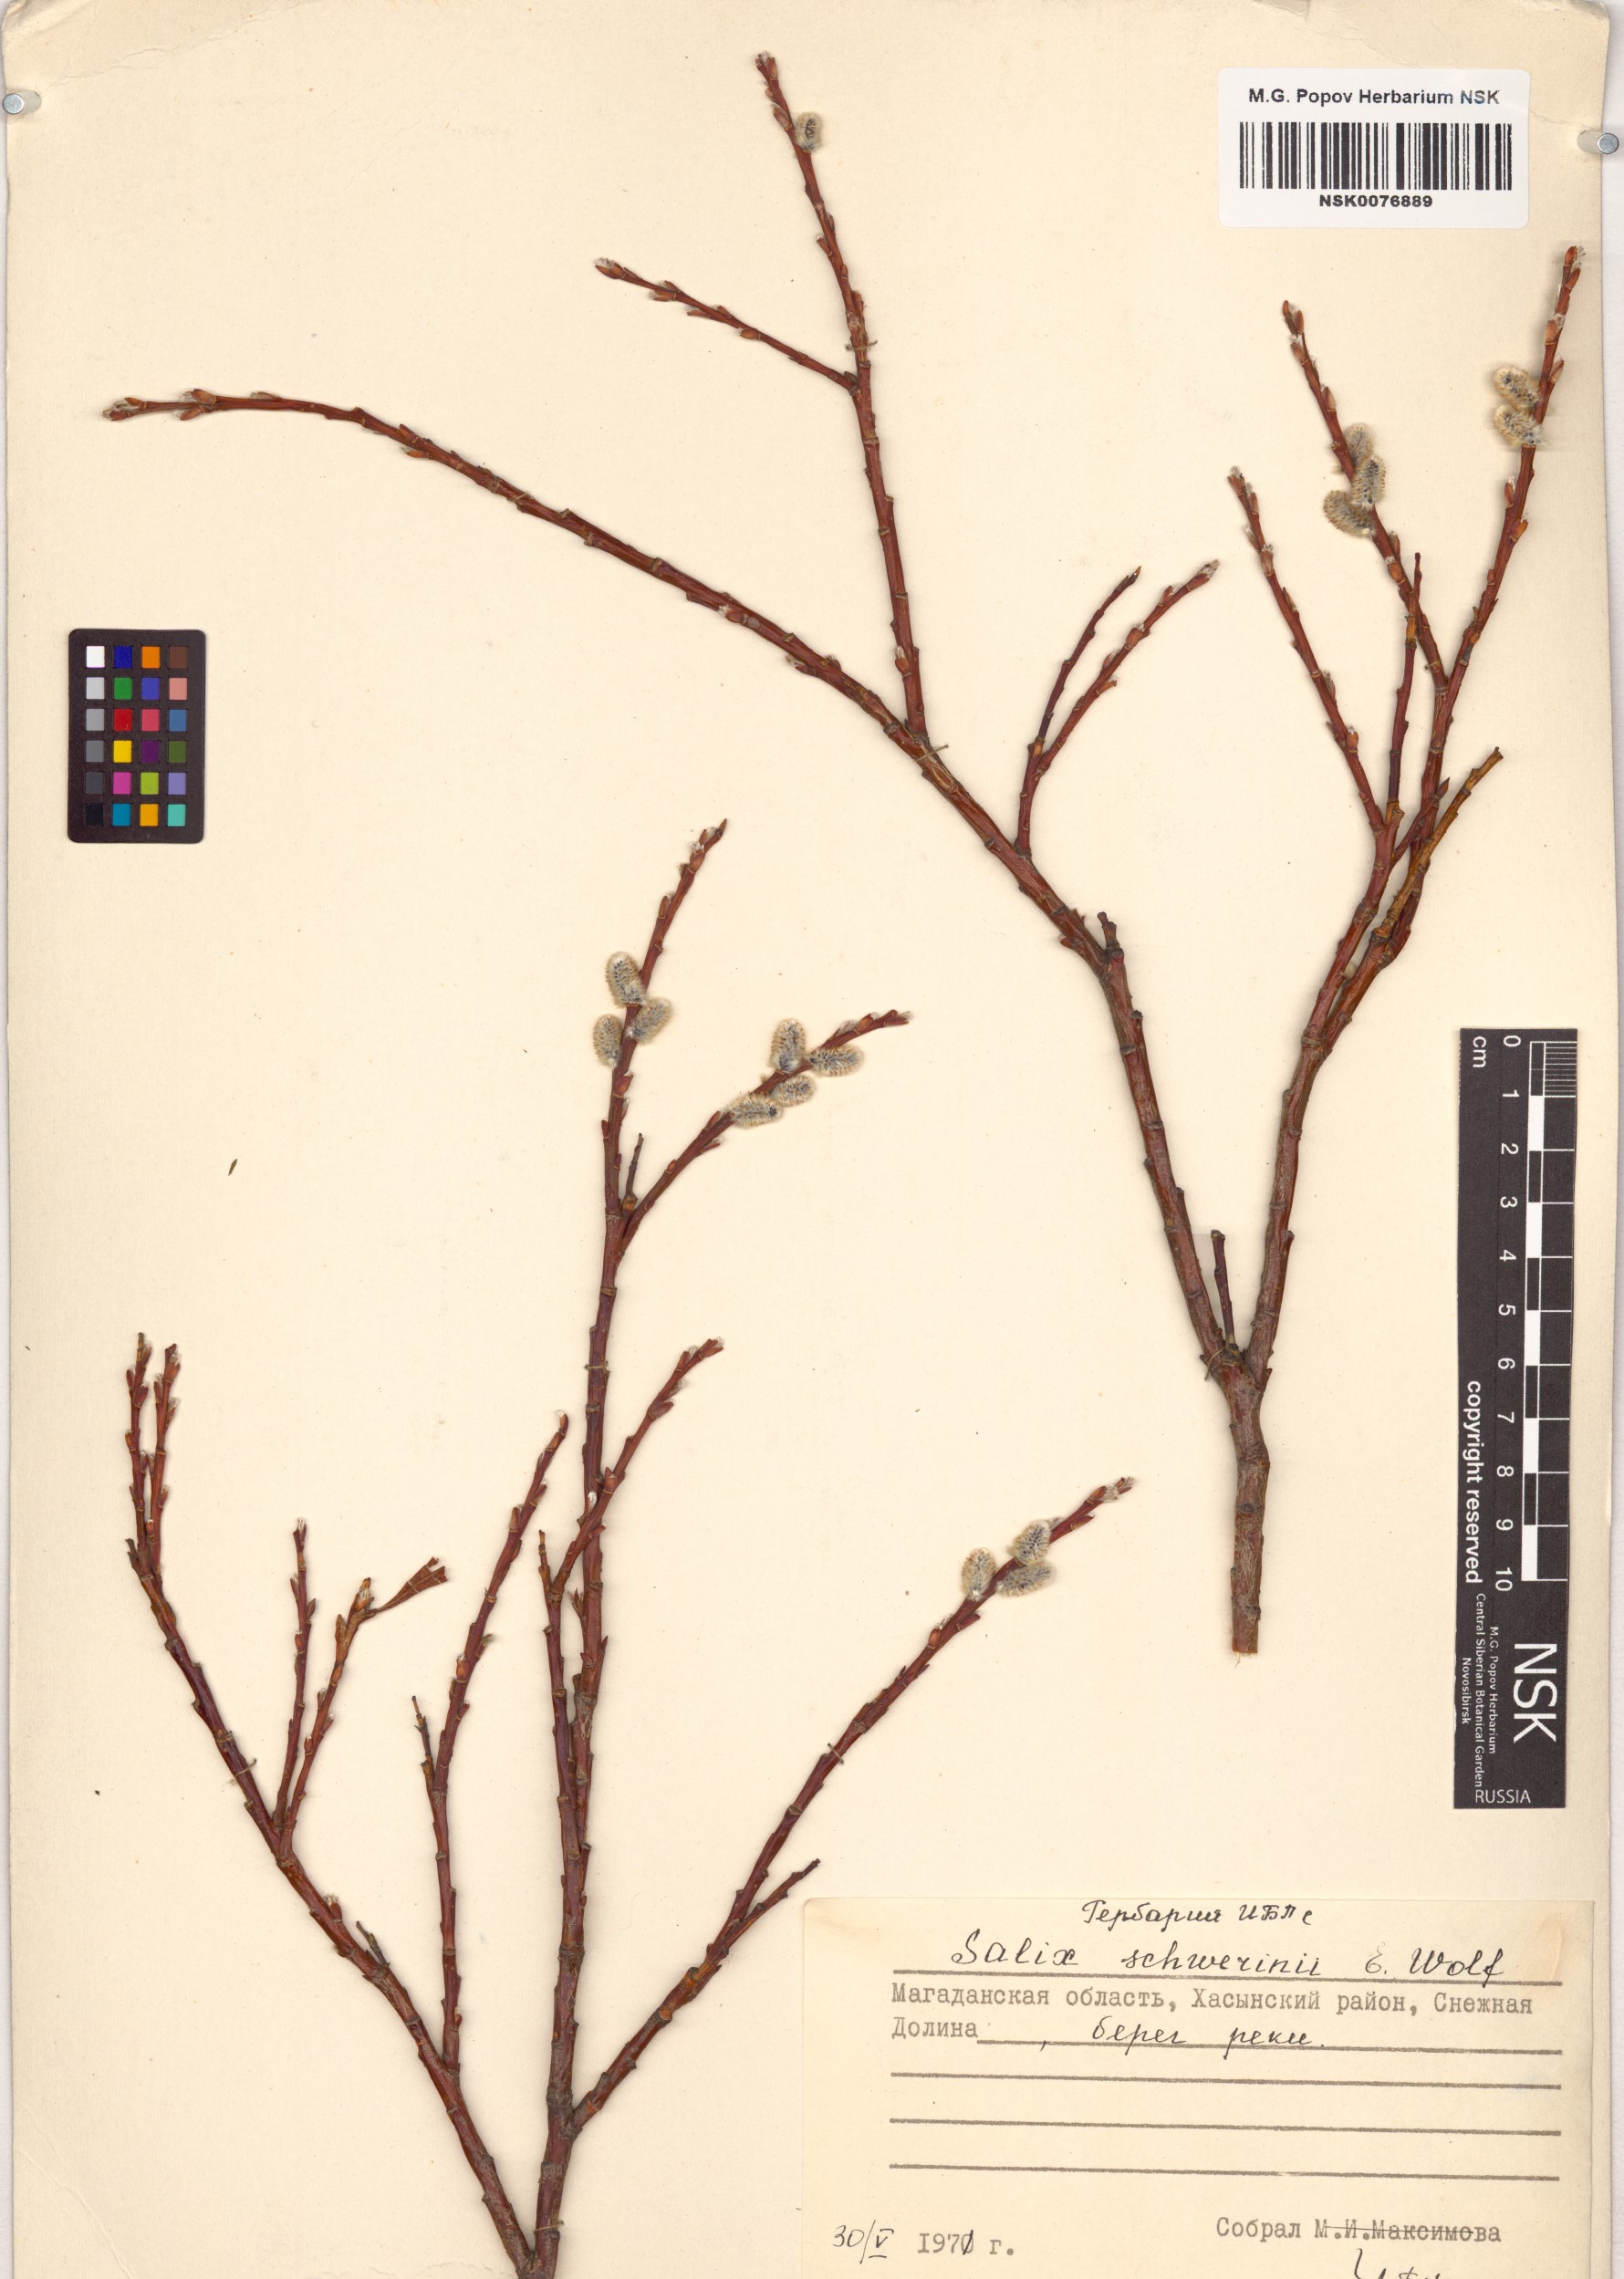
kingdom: Plantae
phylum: Tracheophyta
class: Magnoliopsida
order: Malpighiales
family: Salicaceae
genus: Salix
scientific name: Salix schwerinii
